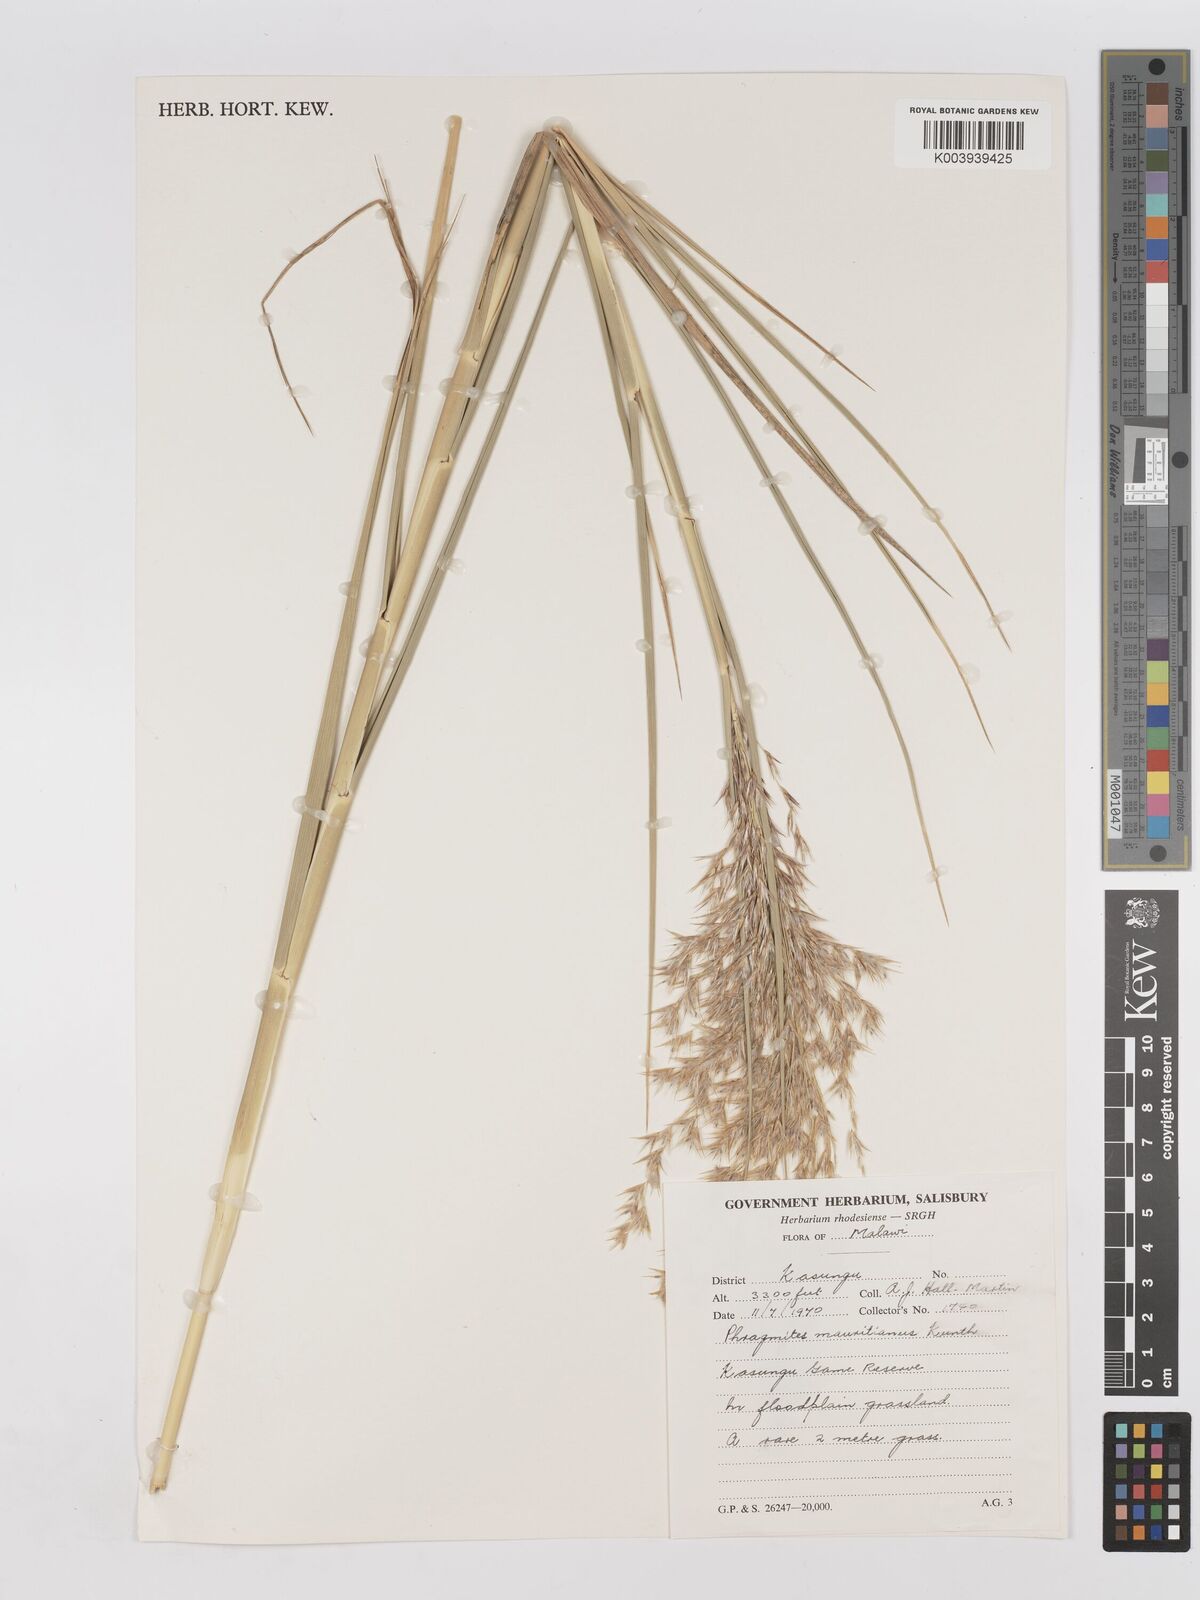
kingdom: Plantae
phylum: Tracheophyta
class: Liliopsida
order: Poales
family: Poaceae
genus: Phragmites
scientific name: Phragmites mauritianus
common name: Reed grass
